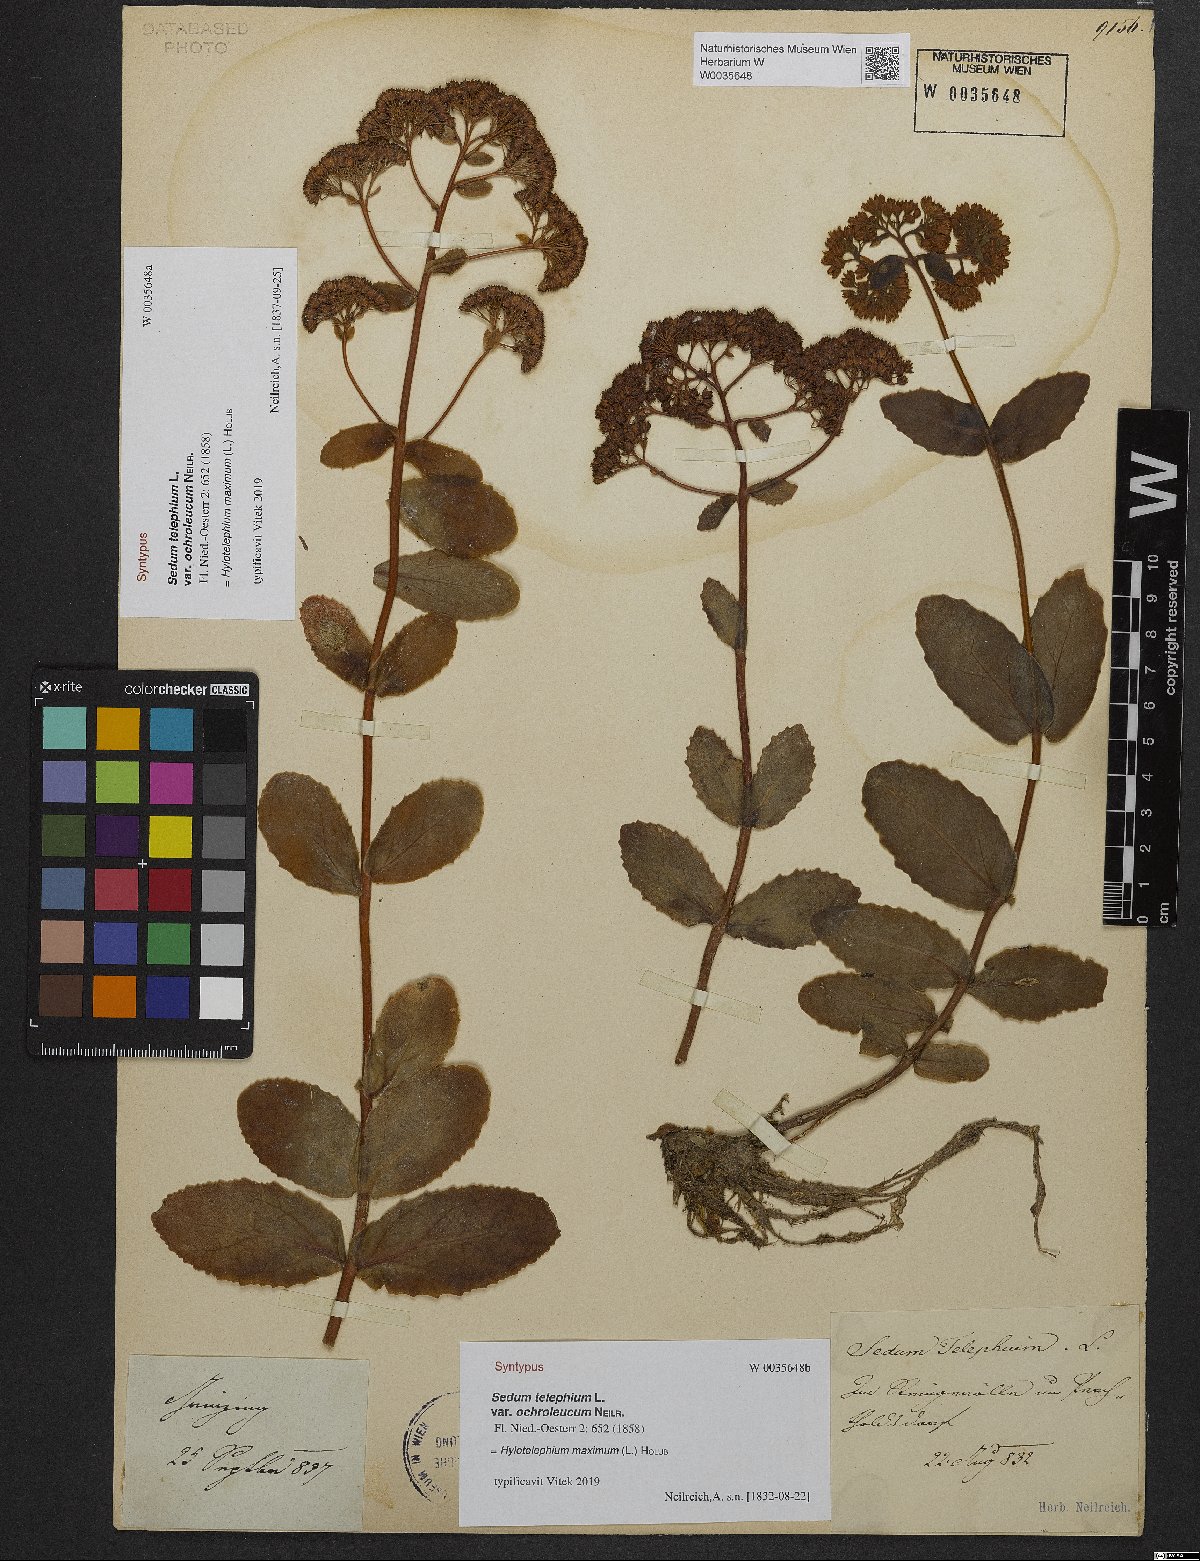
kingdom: Plantae
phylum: Tracheophyta
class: Magnoliopsida
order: Saxifragales
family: Crassulaceae
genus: Hylotelephium
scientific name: Hylotelephium telephium
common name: Live-forever
